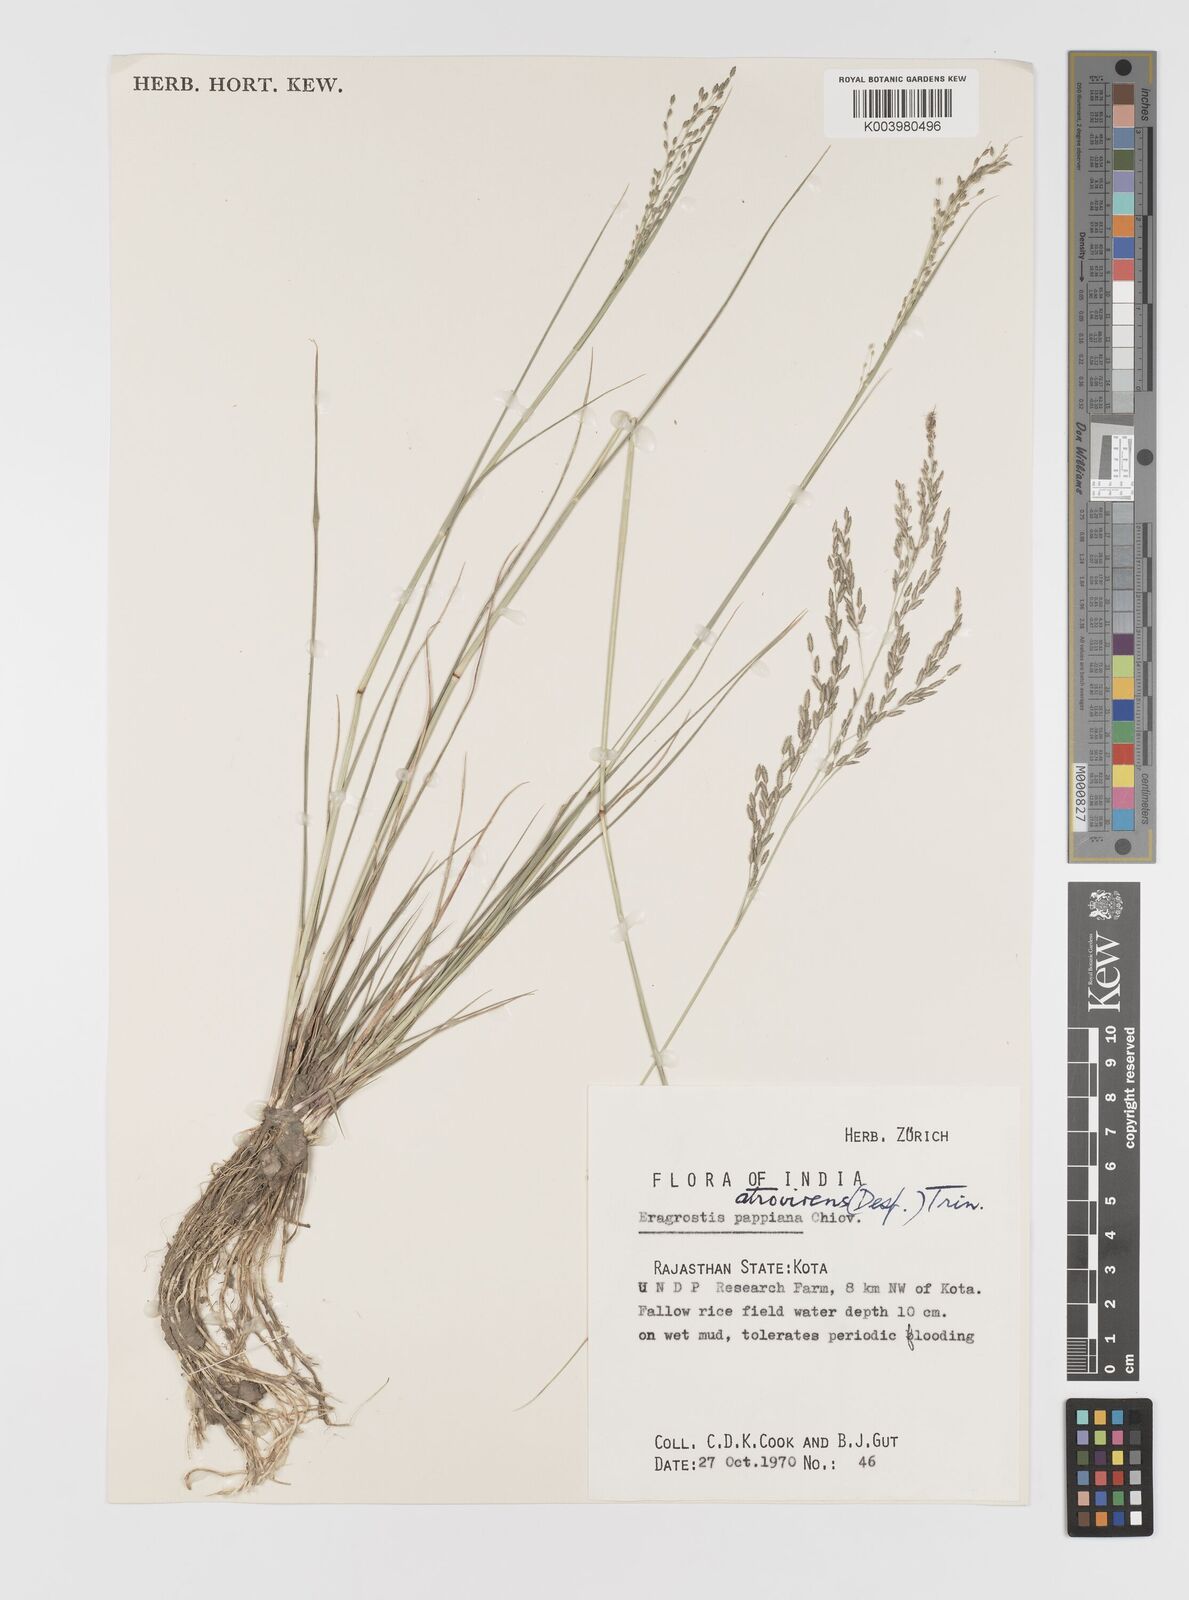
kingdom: Plantae
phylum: Tracheophyta
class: Liliopsida
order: Poales
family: Poaceae
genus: Eragrostis
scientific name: Eragrostis
